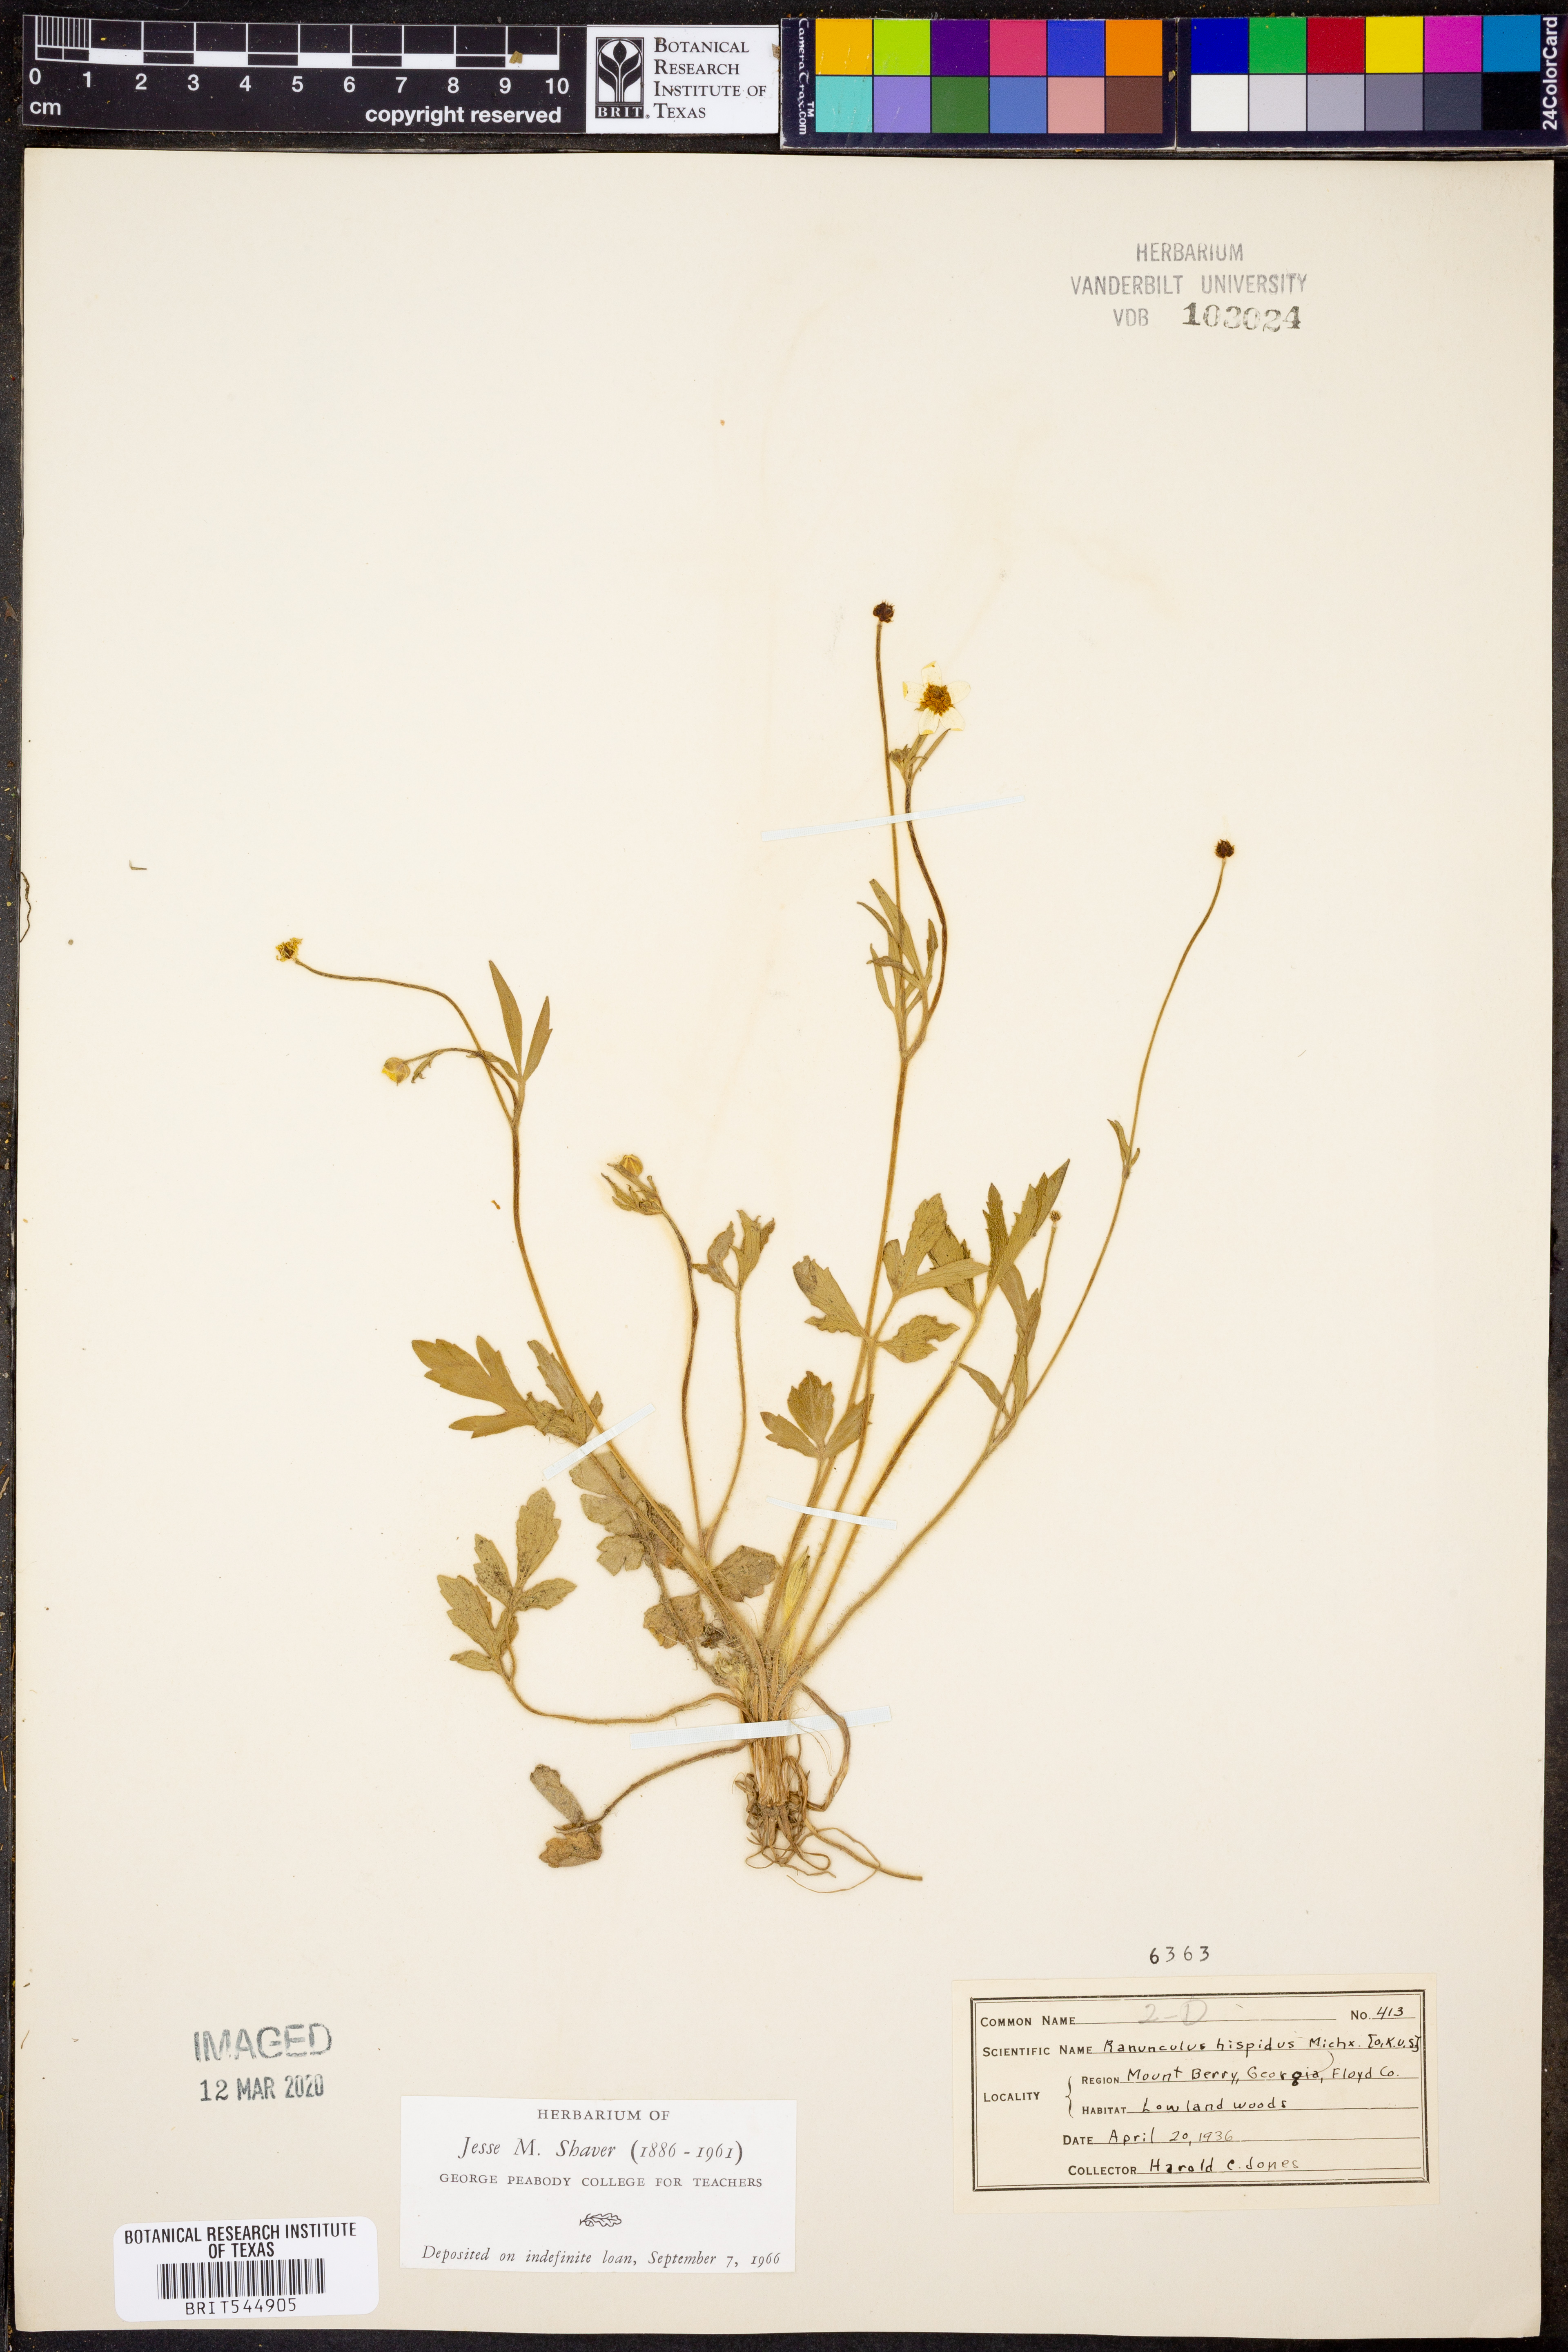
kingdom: Plantae
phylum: Tracheophyta
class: Magnoliopsida
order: Ranunculales
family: Ranunculaceae
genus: Ranunculus
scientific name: Ranunculus hispidus
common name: Bristly buttercup
